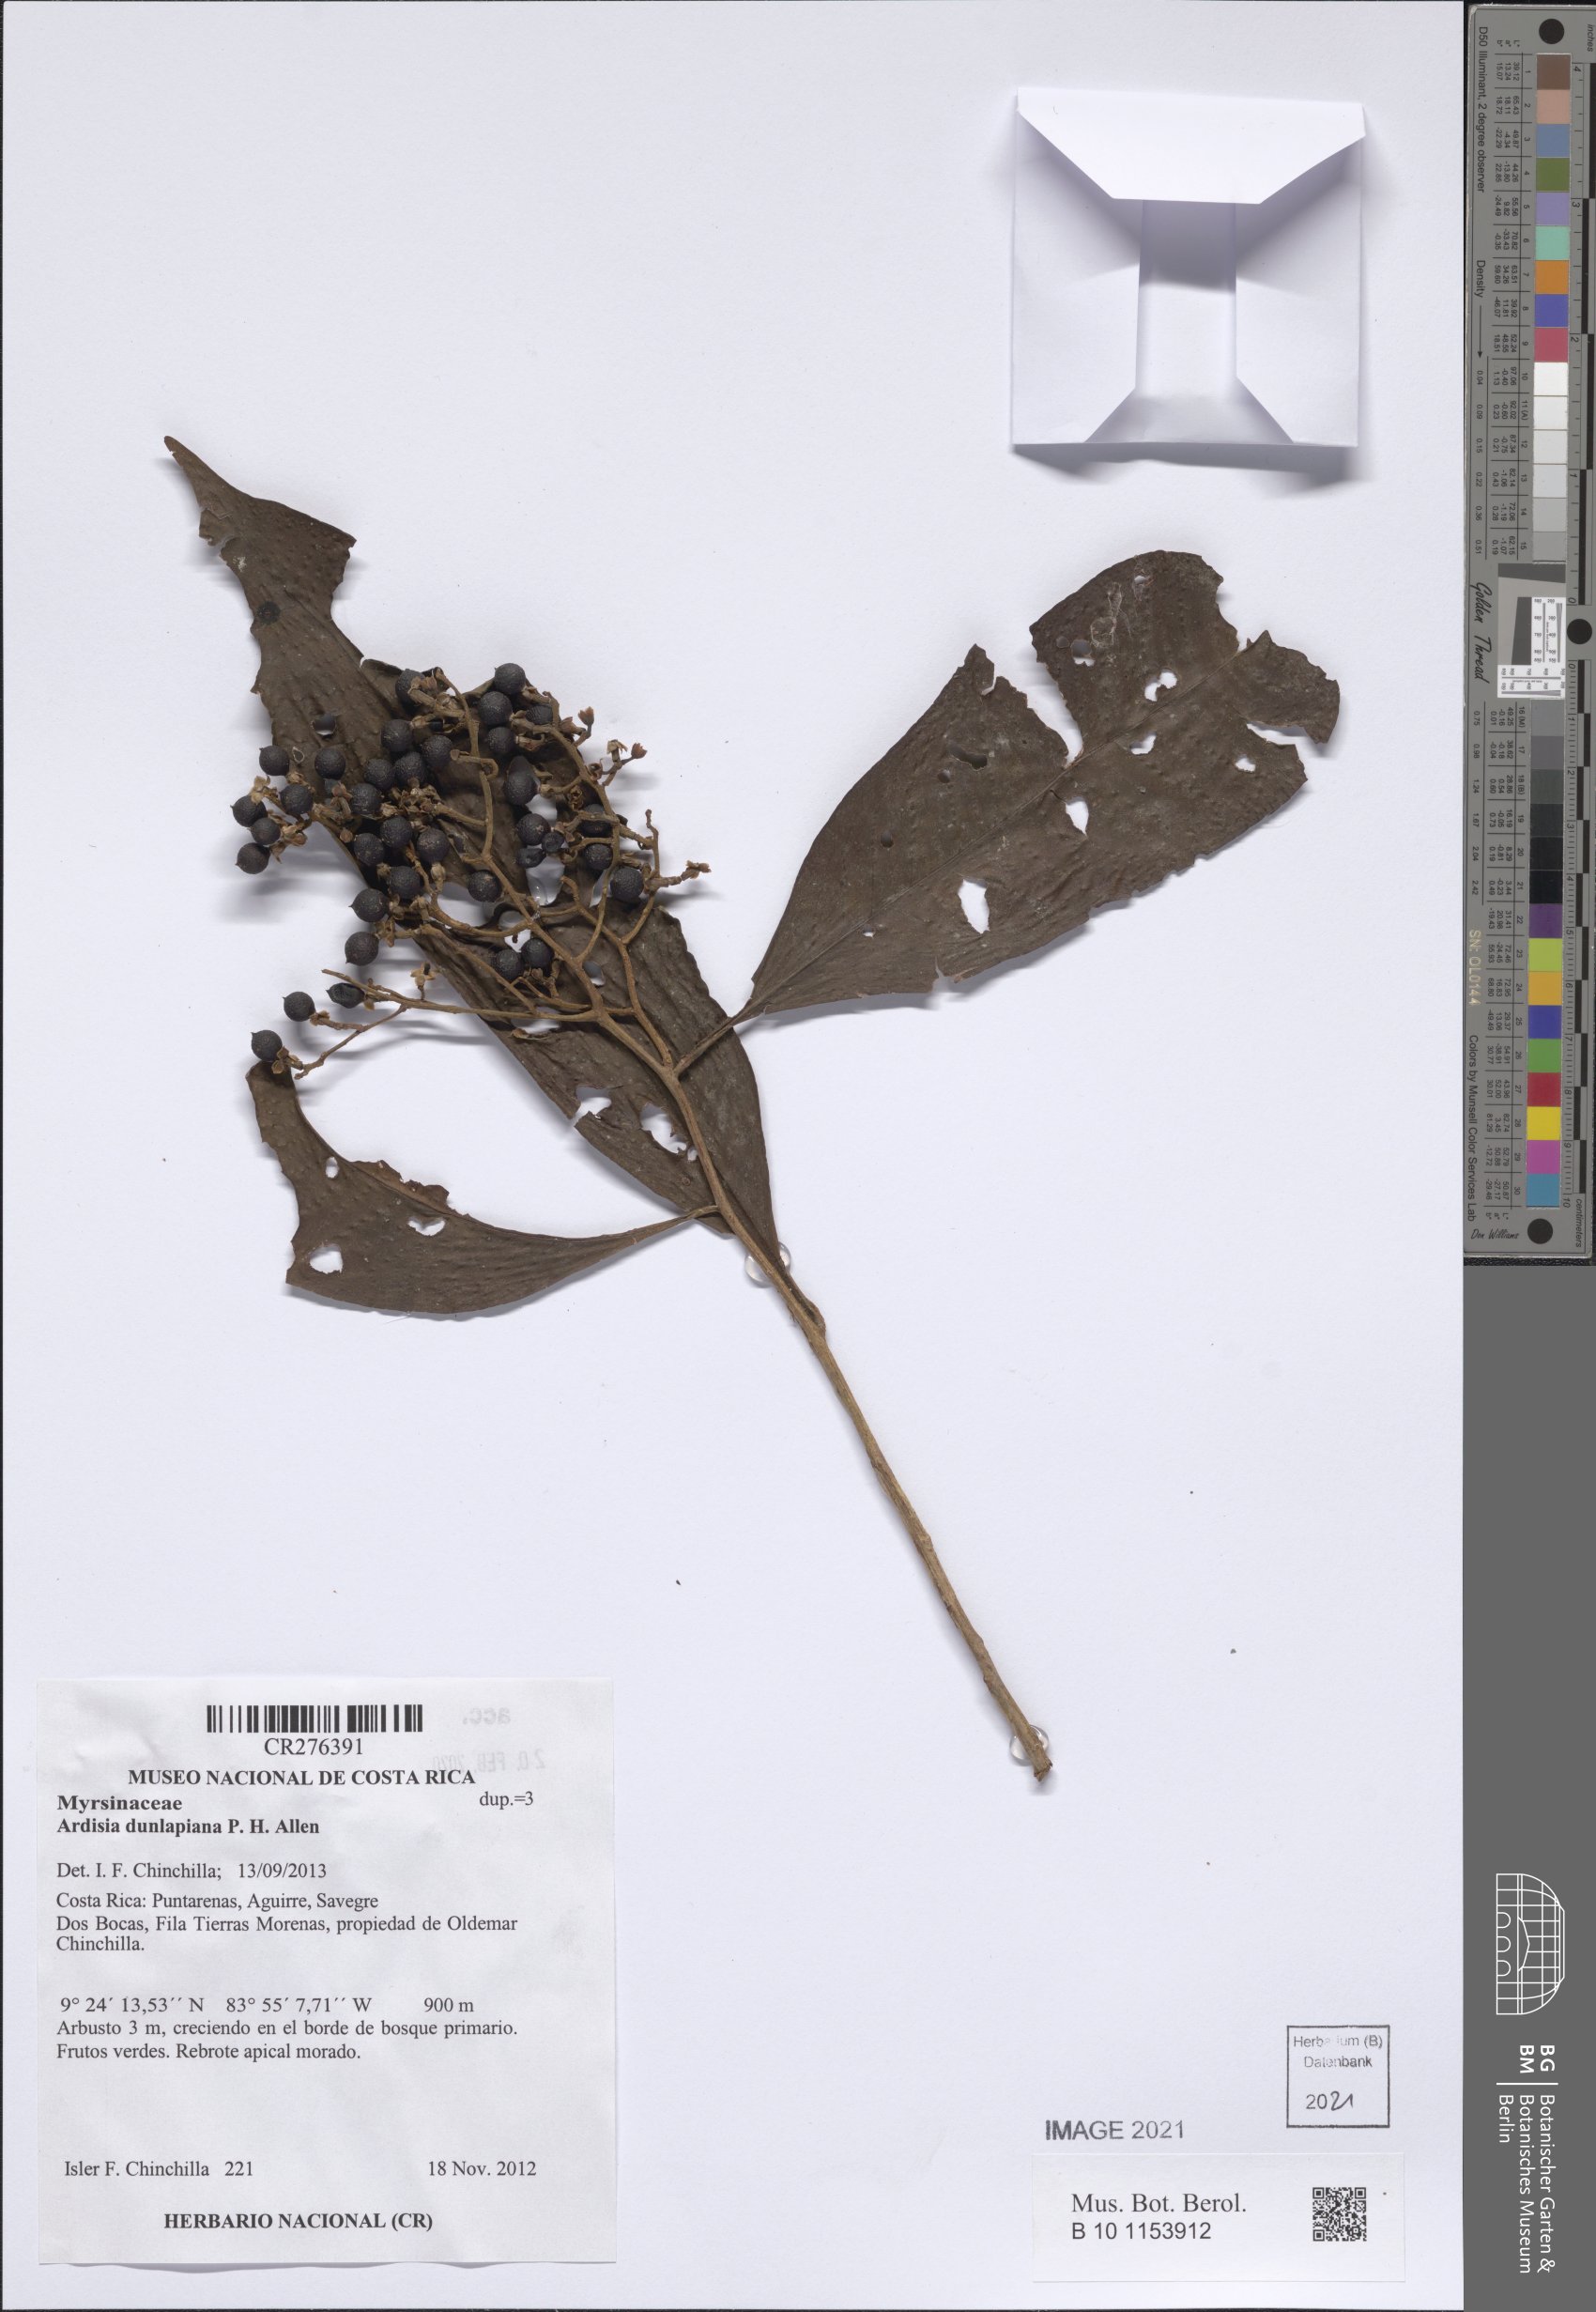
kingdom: Plantae
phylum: Tracheophyta
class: Magnoliopsida
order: Ericales
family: Primulaceae
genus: Ardisia
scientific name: Ardisia dunlapiana
